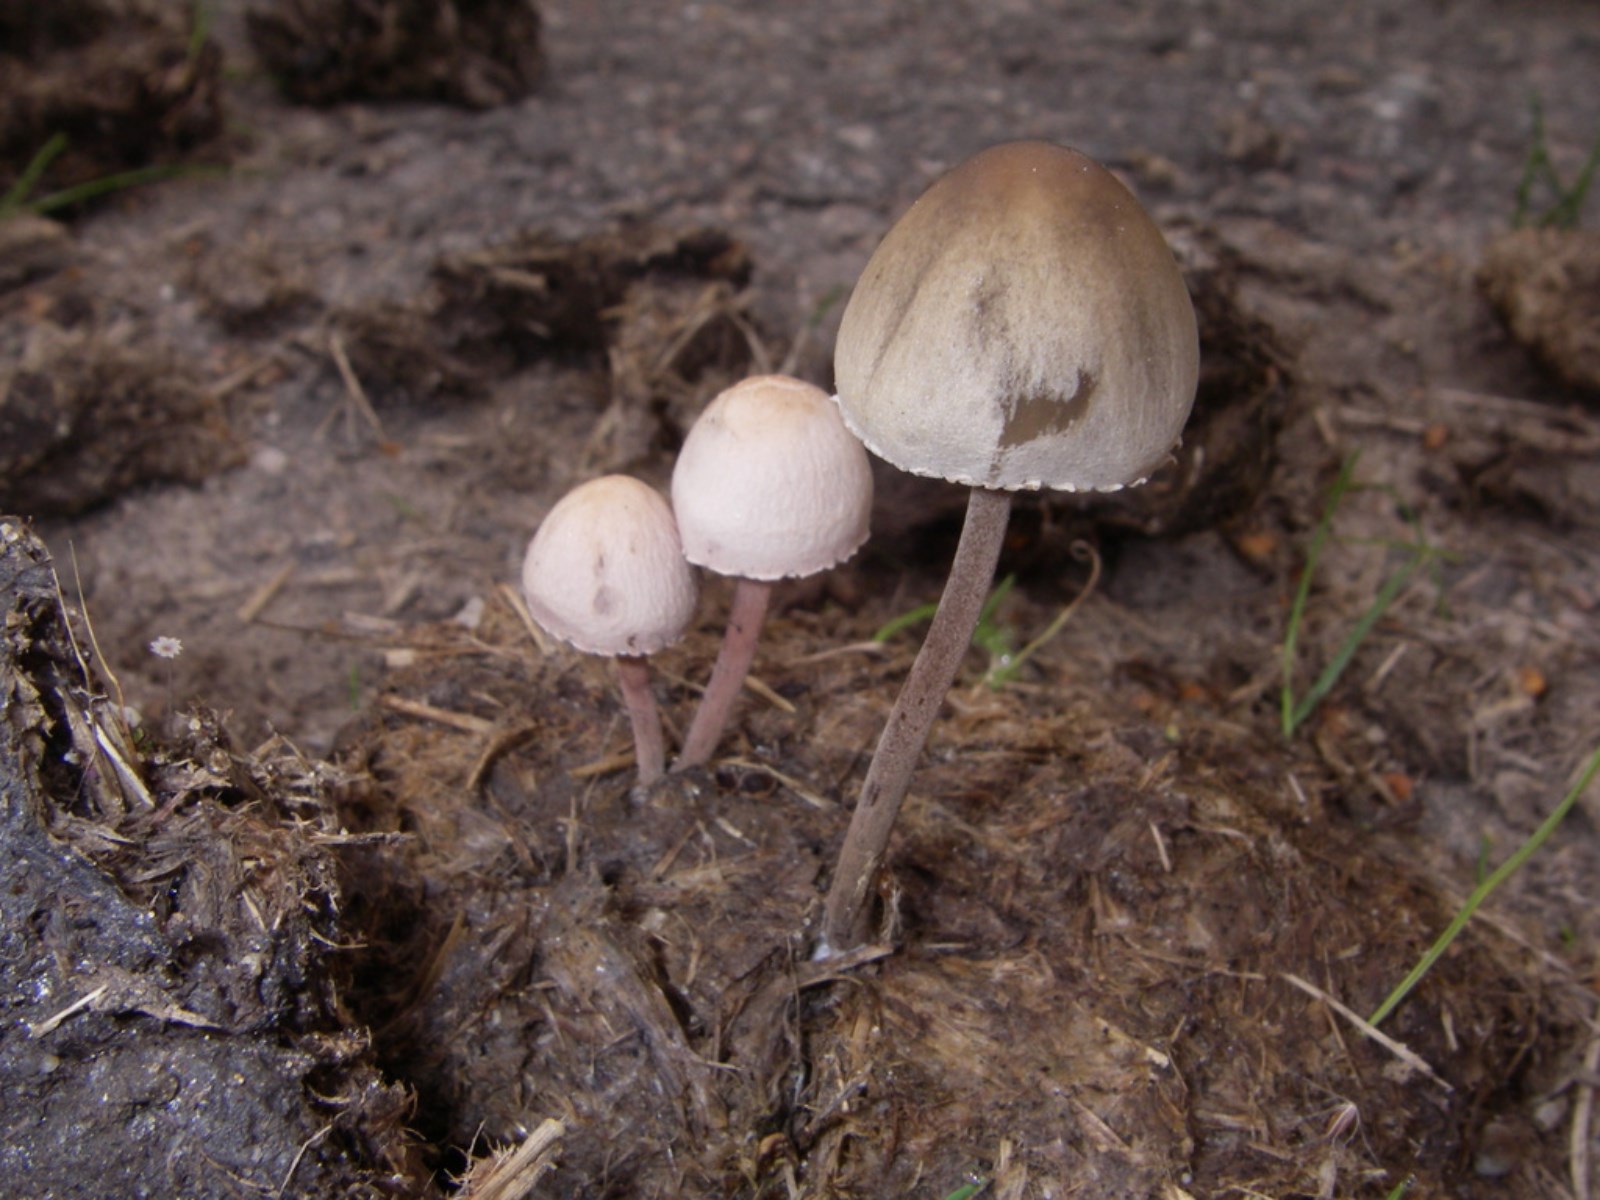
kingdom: Fungi
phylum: Basidiomycota
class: Agaricomycetes
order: Agaricales
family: Bolbitiaceae
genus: Panaeolus
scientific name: Panaeolus papilionaceus
